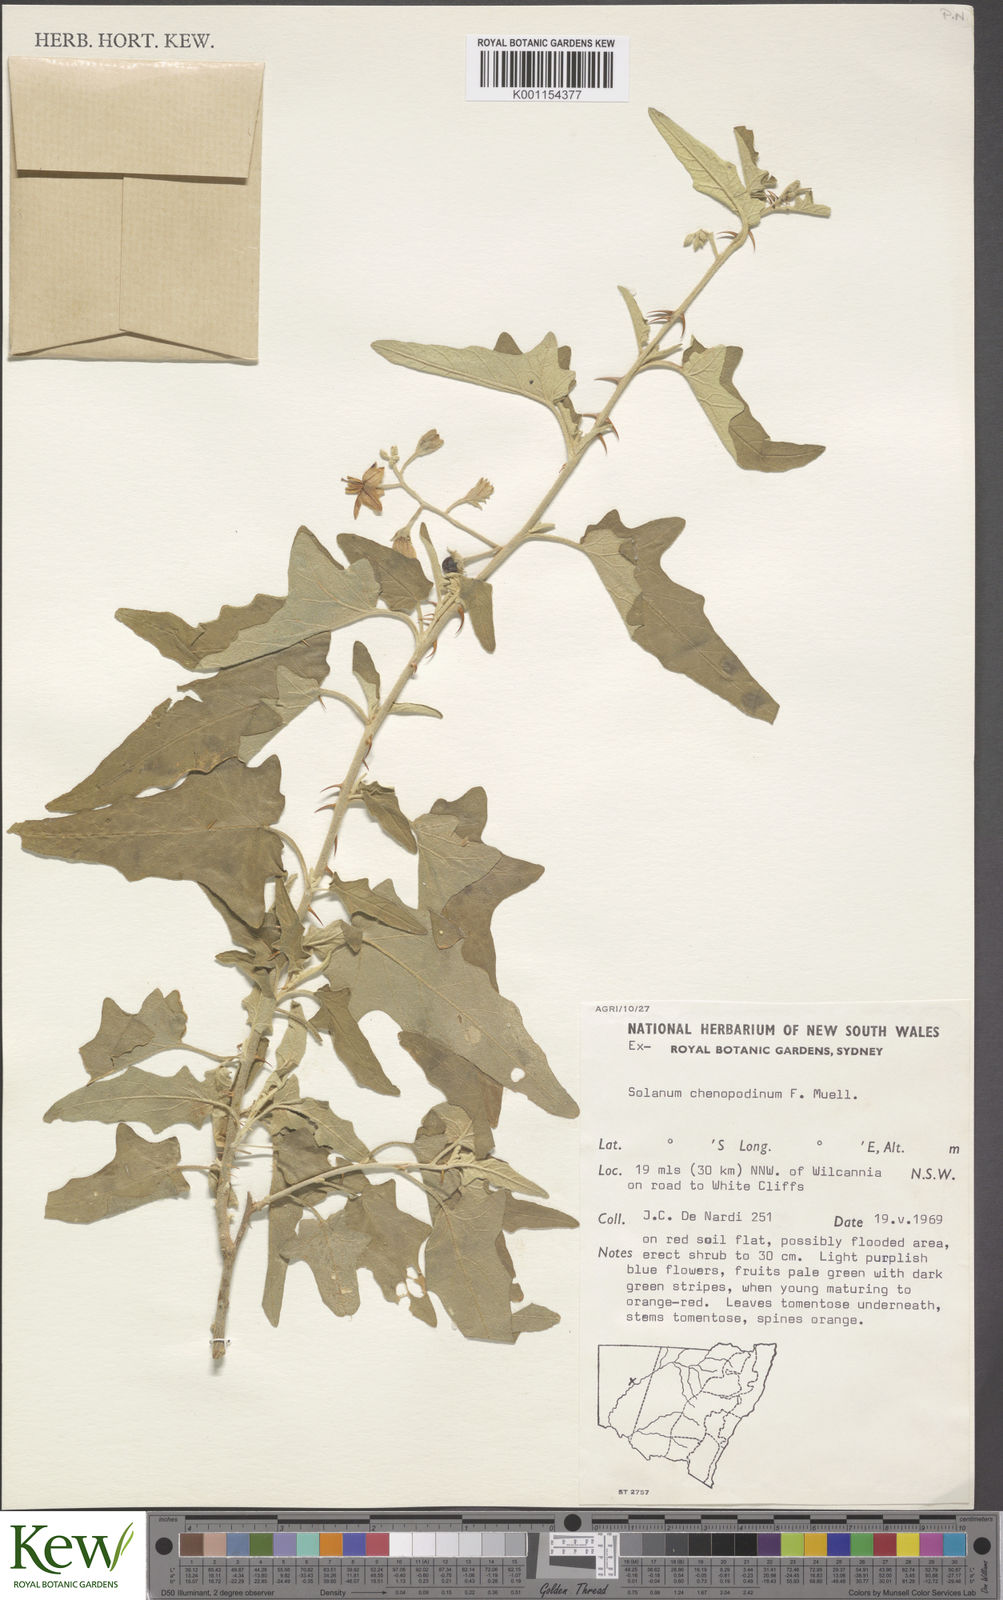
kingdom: Plantae
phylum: Tracheophyta
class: Magnoliopsida
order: Solanales
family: Solanaceae
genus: Solanum
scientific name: Solanum chenopodinum
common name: Goosefoot potato-bush
